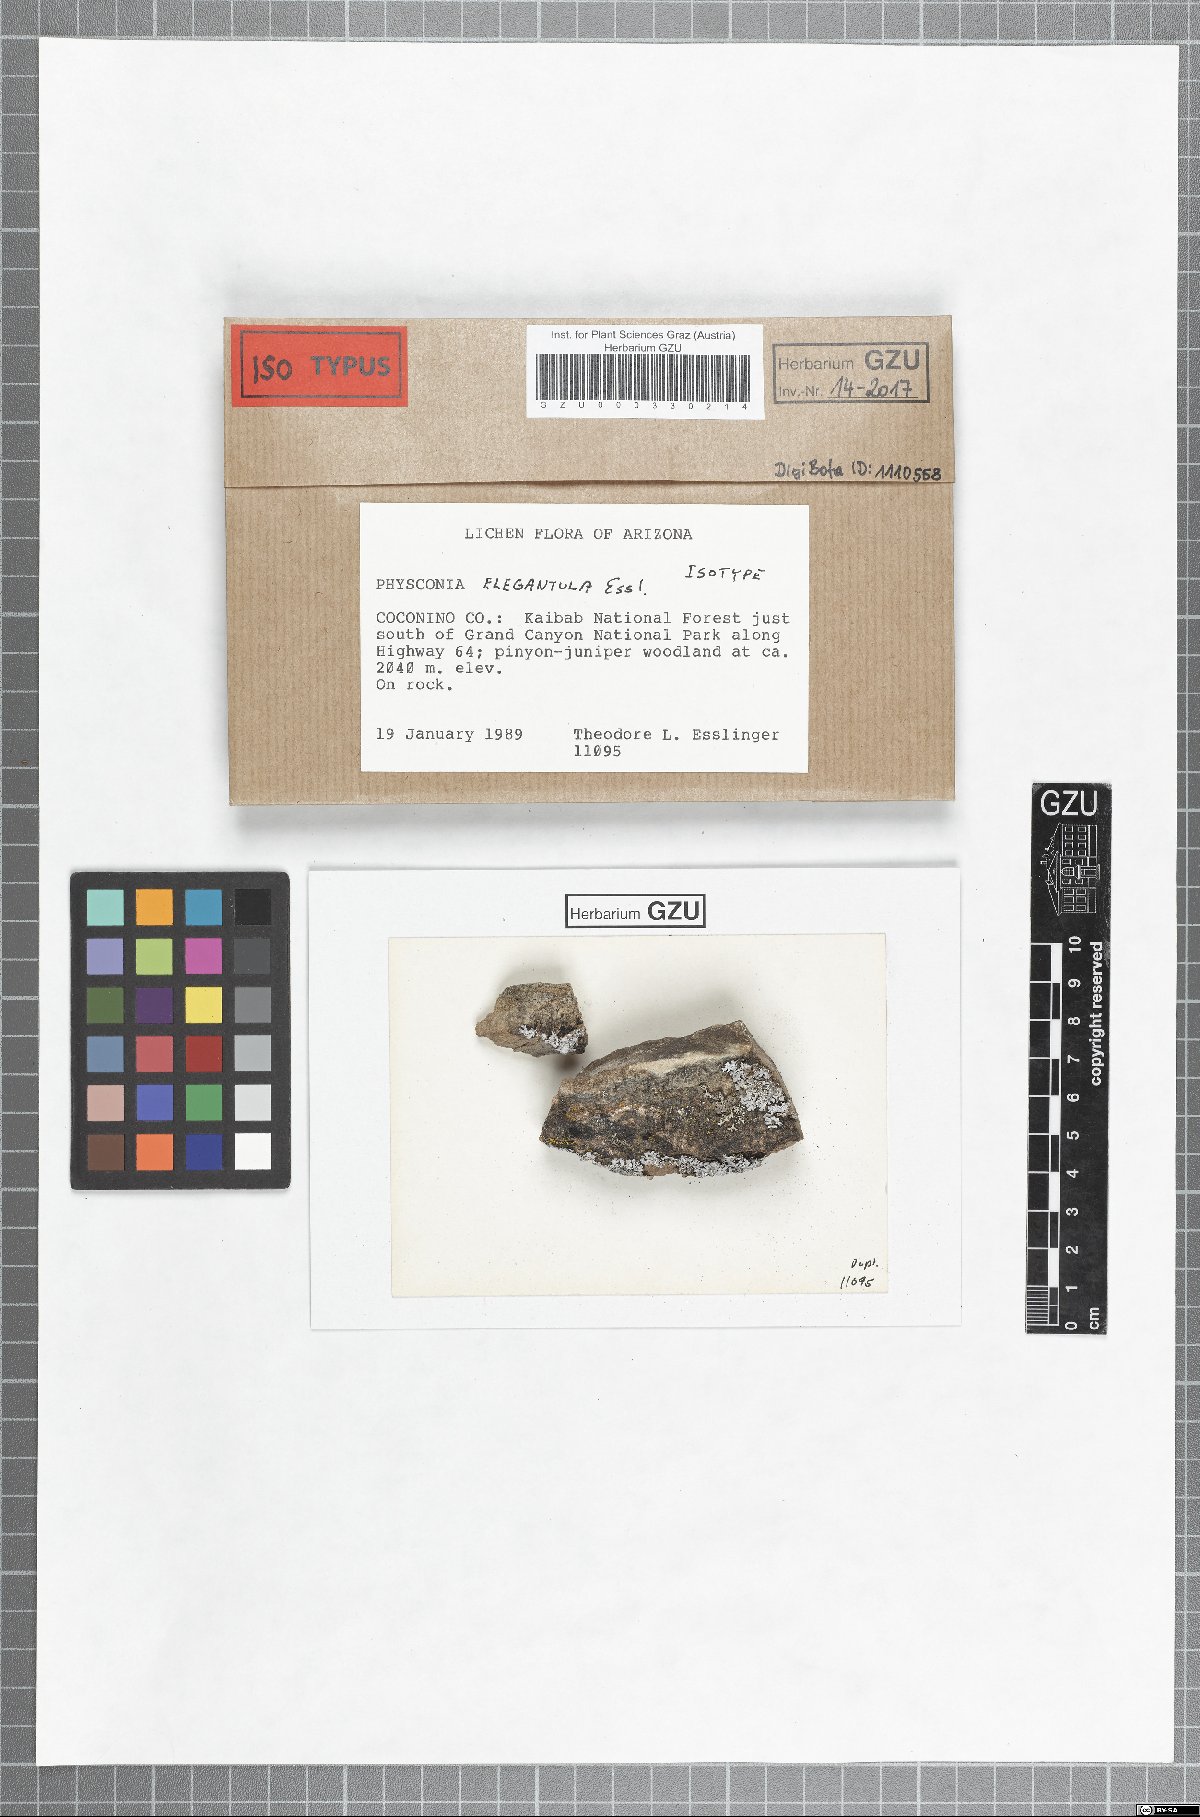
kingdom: Fungi
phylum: Ascomycota
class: Lecanoromycetes
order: Caliciales
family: Physciaceae
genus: Poeltonia
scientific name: Poeltonia elegantula
